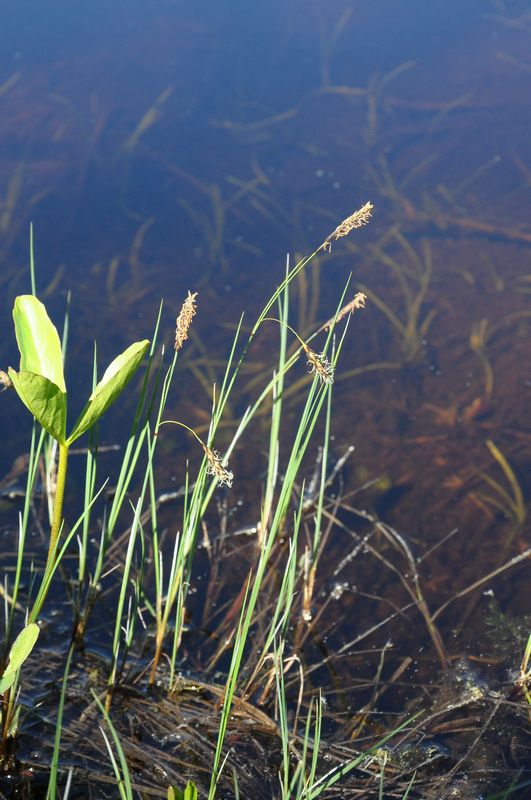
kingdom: Plantae
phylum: Tracheophyta
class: Liliopsida
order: Poales
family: Cyperaceae
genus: Carex
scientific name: Carex limosa
